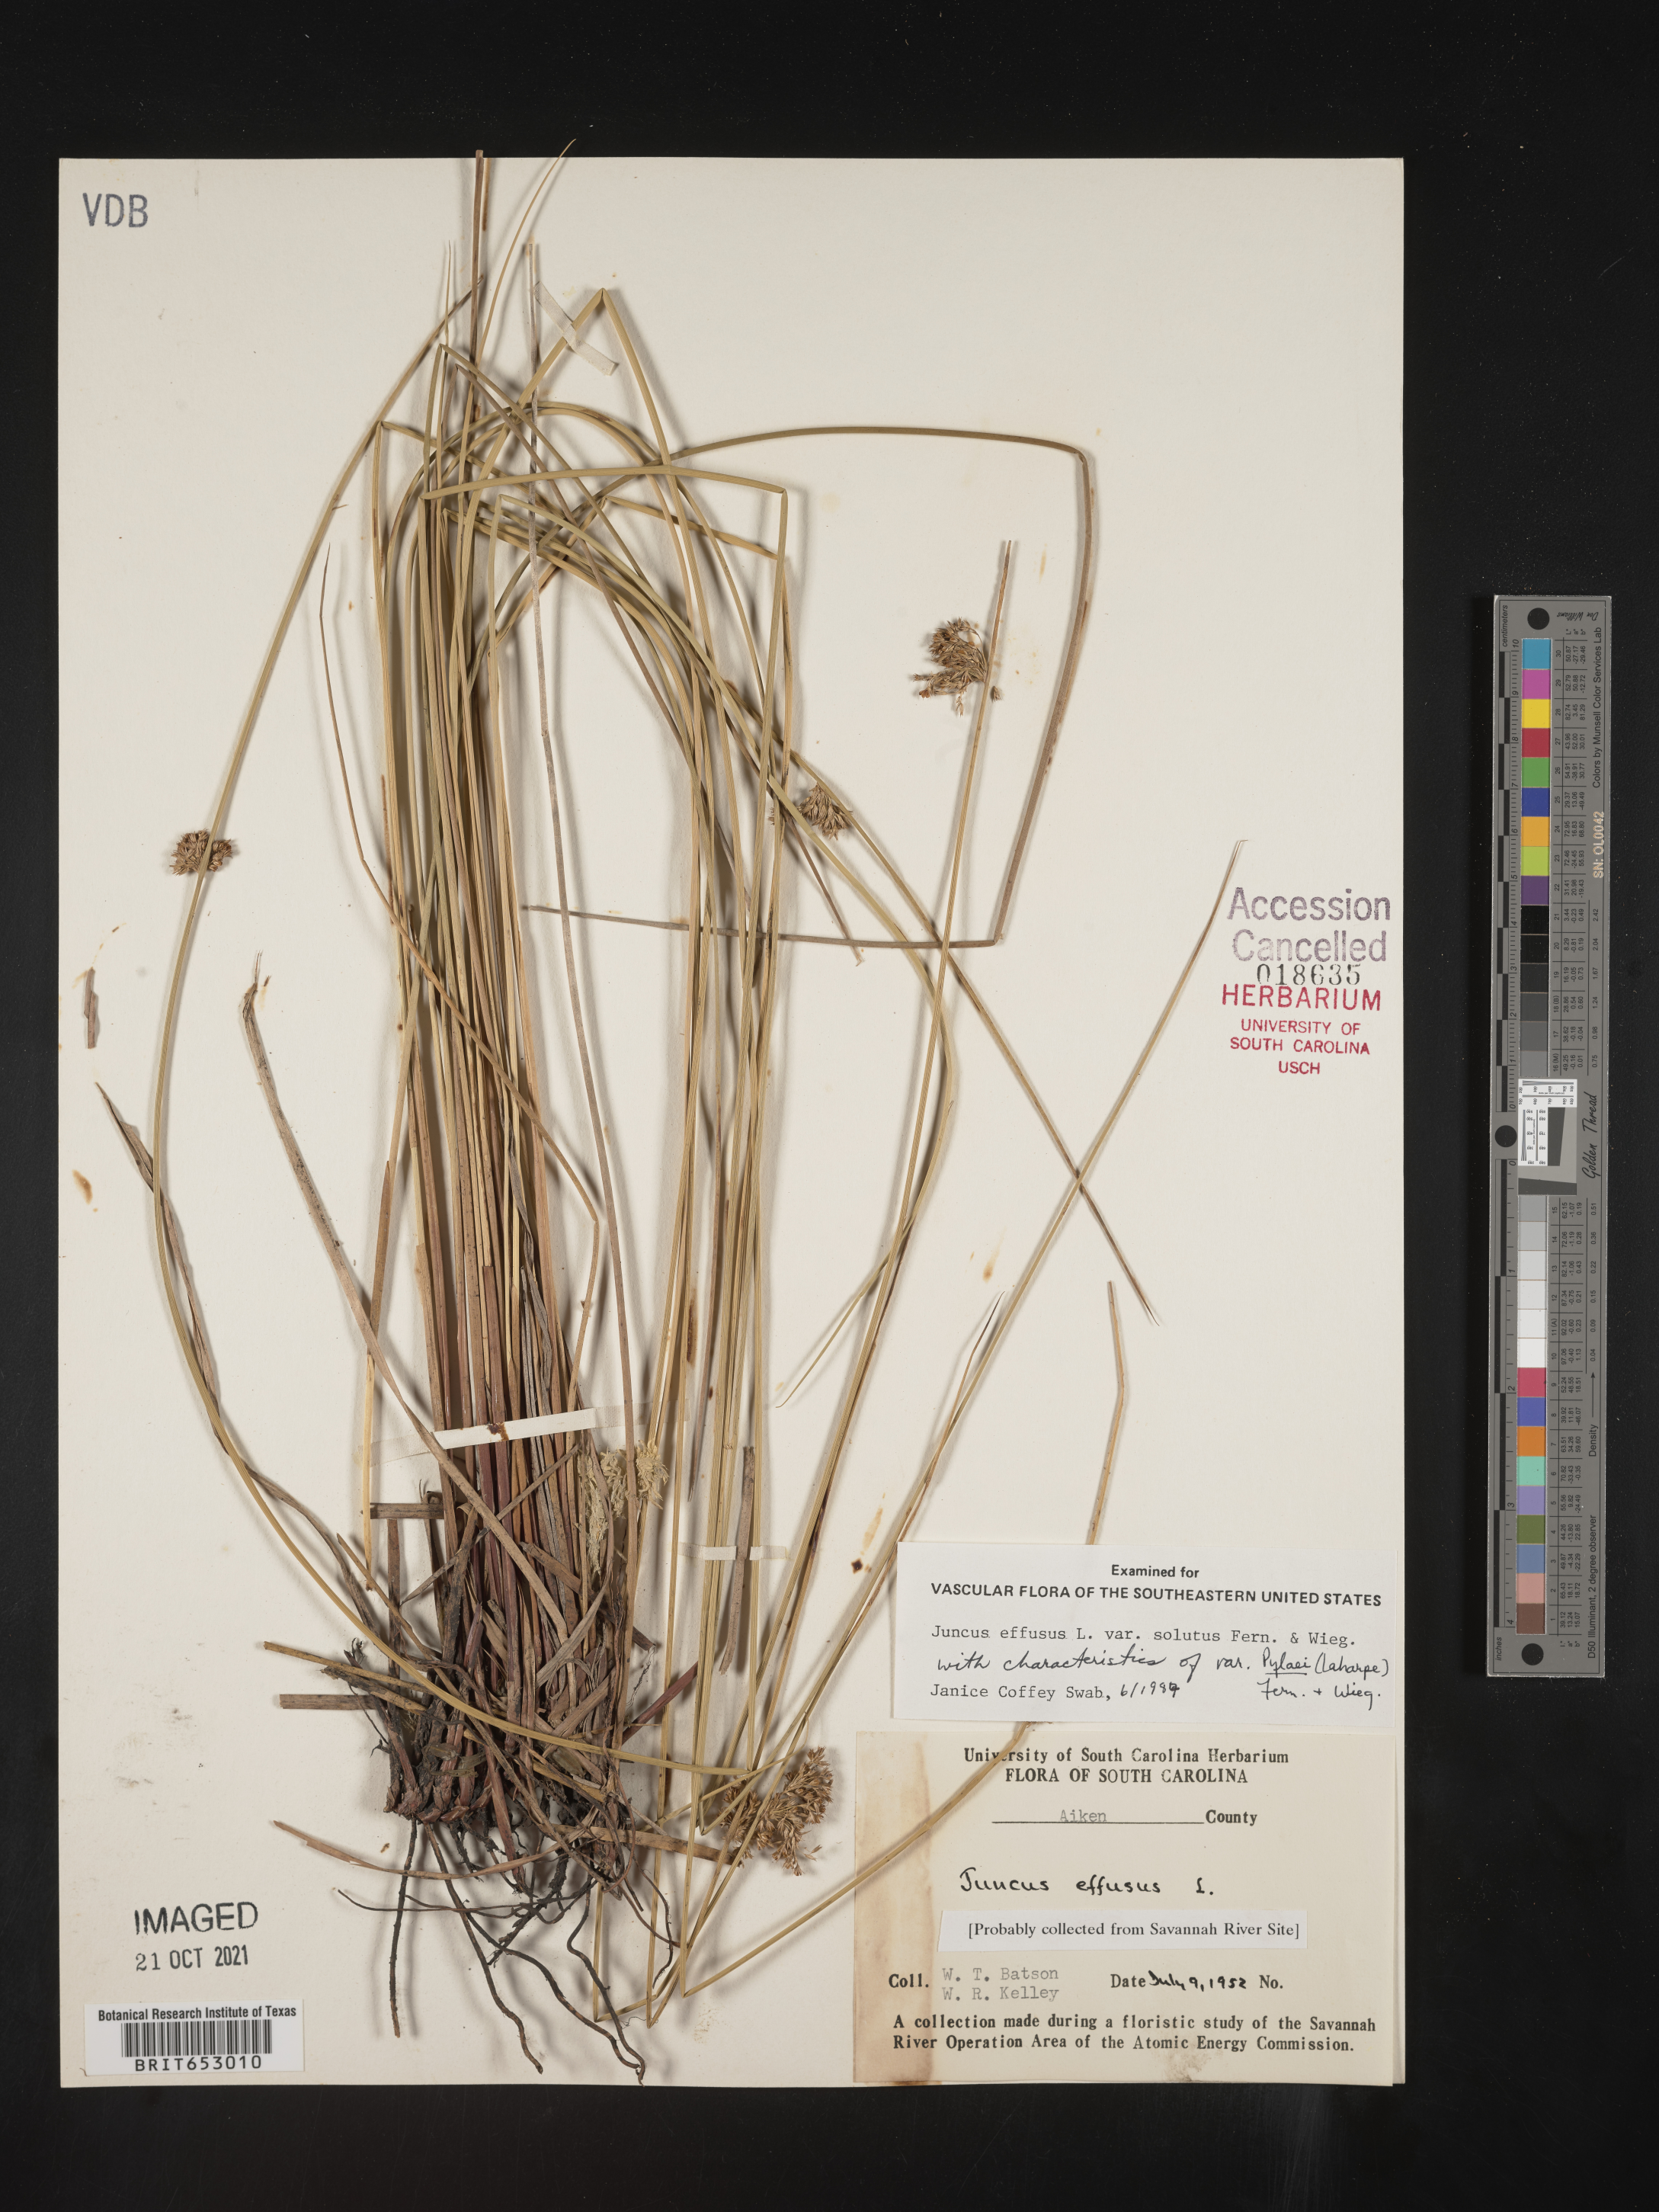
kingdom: Plantae
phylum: Tracheophyta
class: Liliopsida
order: Poales
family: Juncaceae
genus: Juncus
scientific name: Juncus effusus
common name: Soft rush
